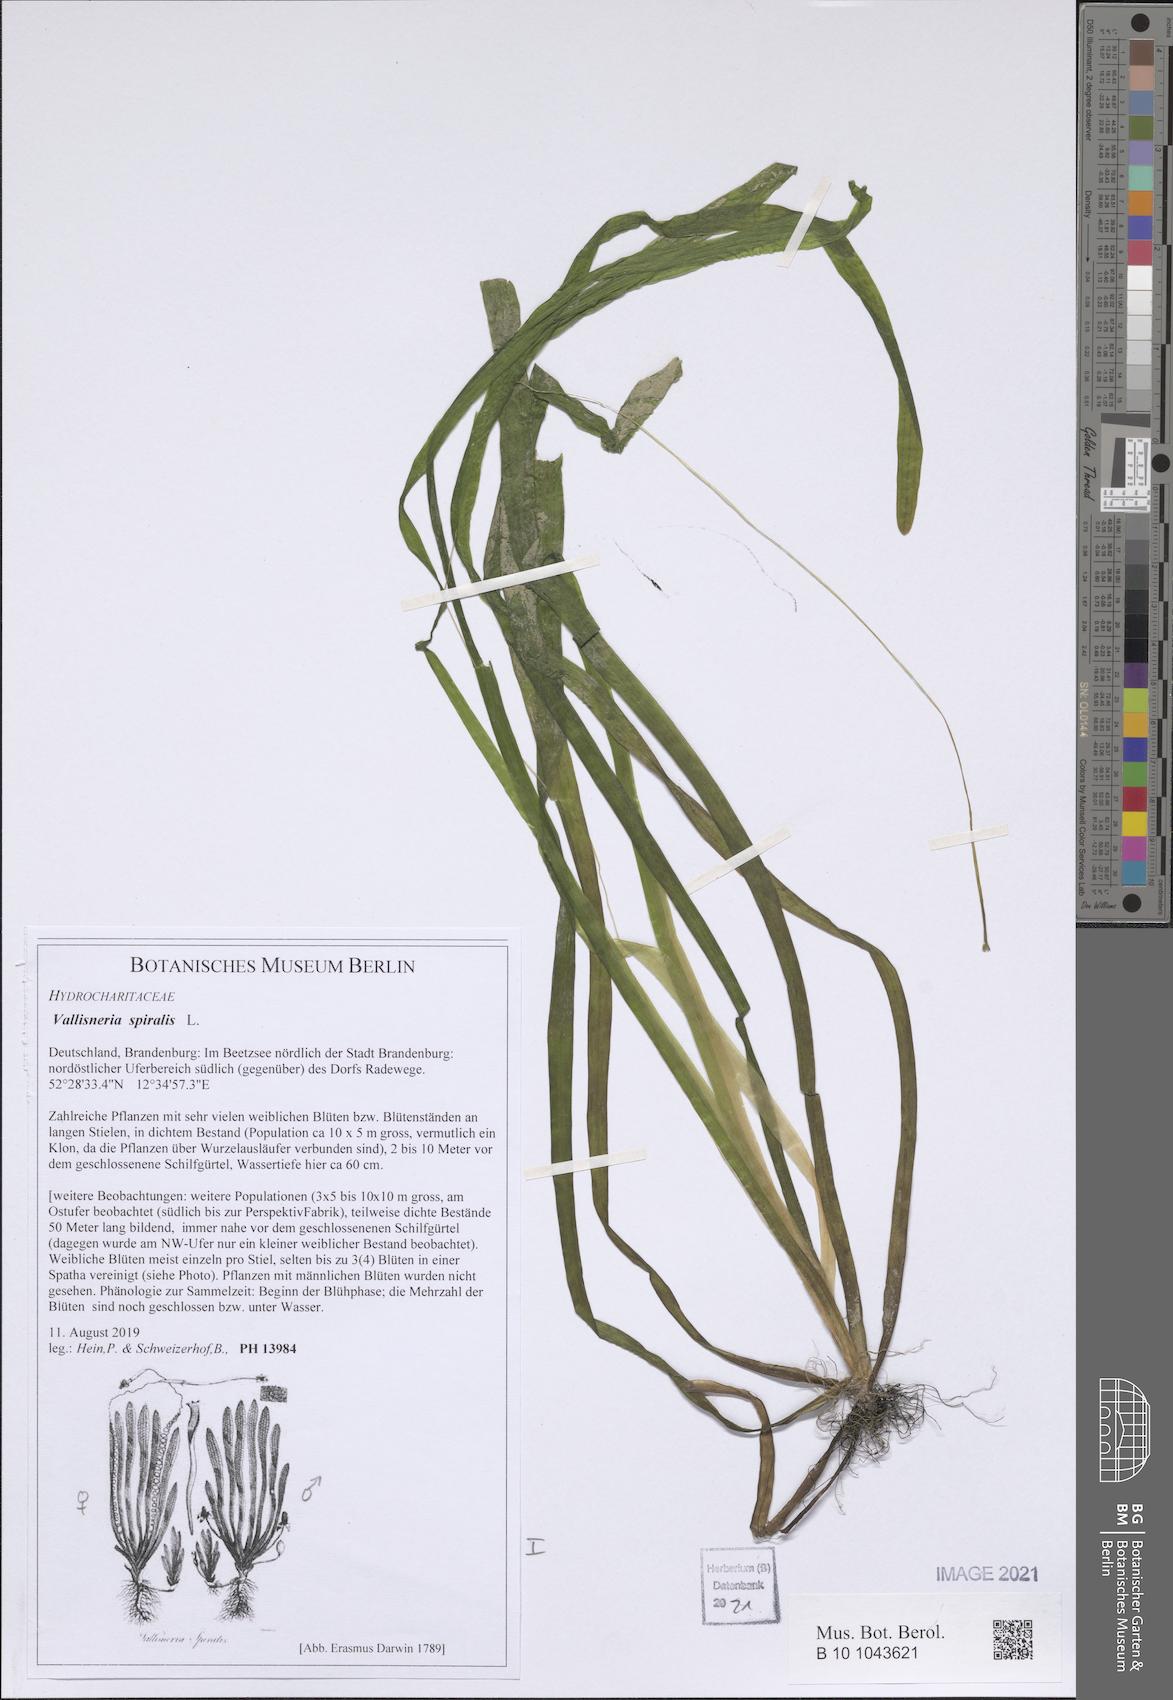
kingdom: Plantae
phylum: Tracheophyta
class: Liliopsida
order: Alismatales
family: Hydrocharitaceae
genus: Vallisneria
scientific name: Vallisneria spiralis
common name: Tapegrass
